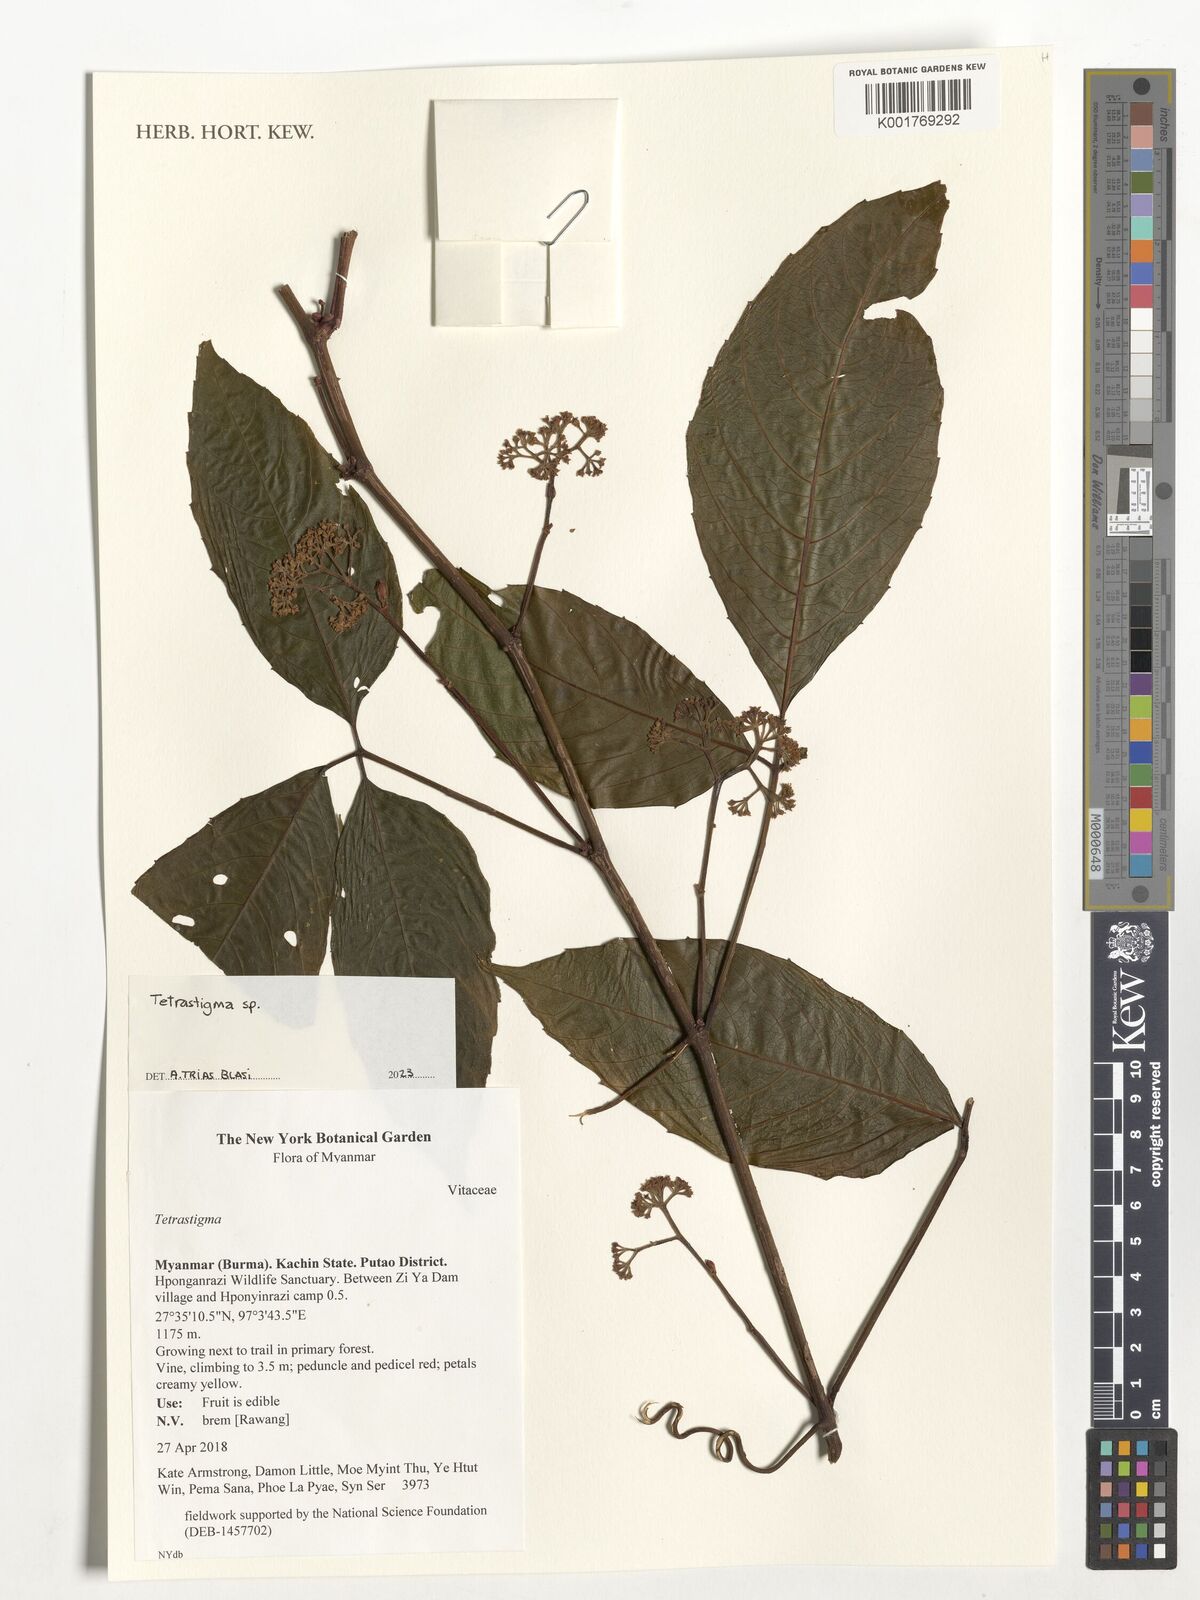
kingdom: Plantae
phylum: Tracheophyta
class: Magnoliopsida
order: Vitales
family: Vitaceae
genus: Tetrastigma
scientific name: Tetrastigma
